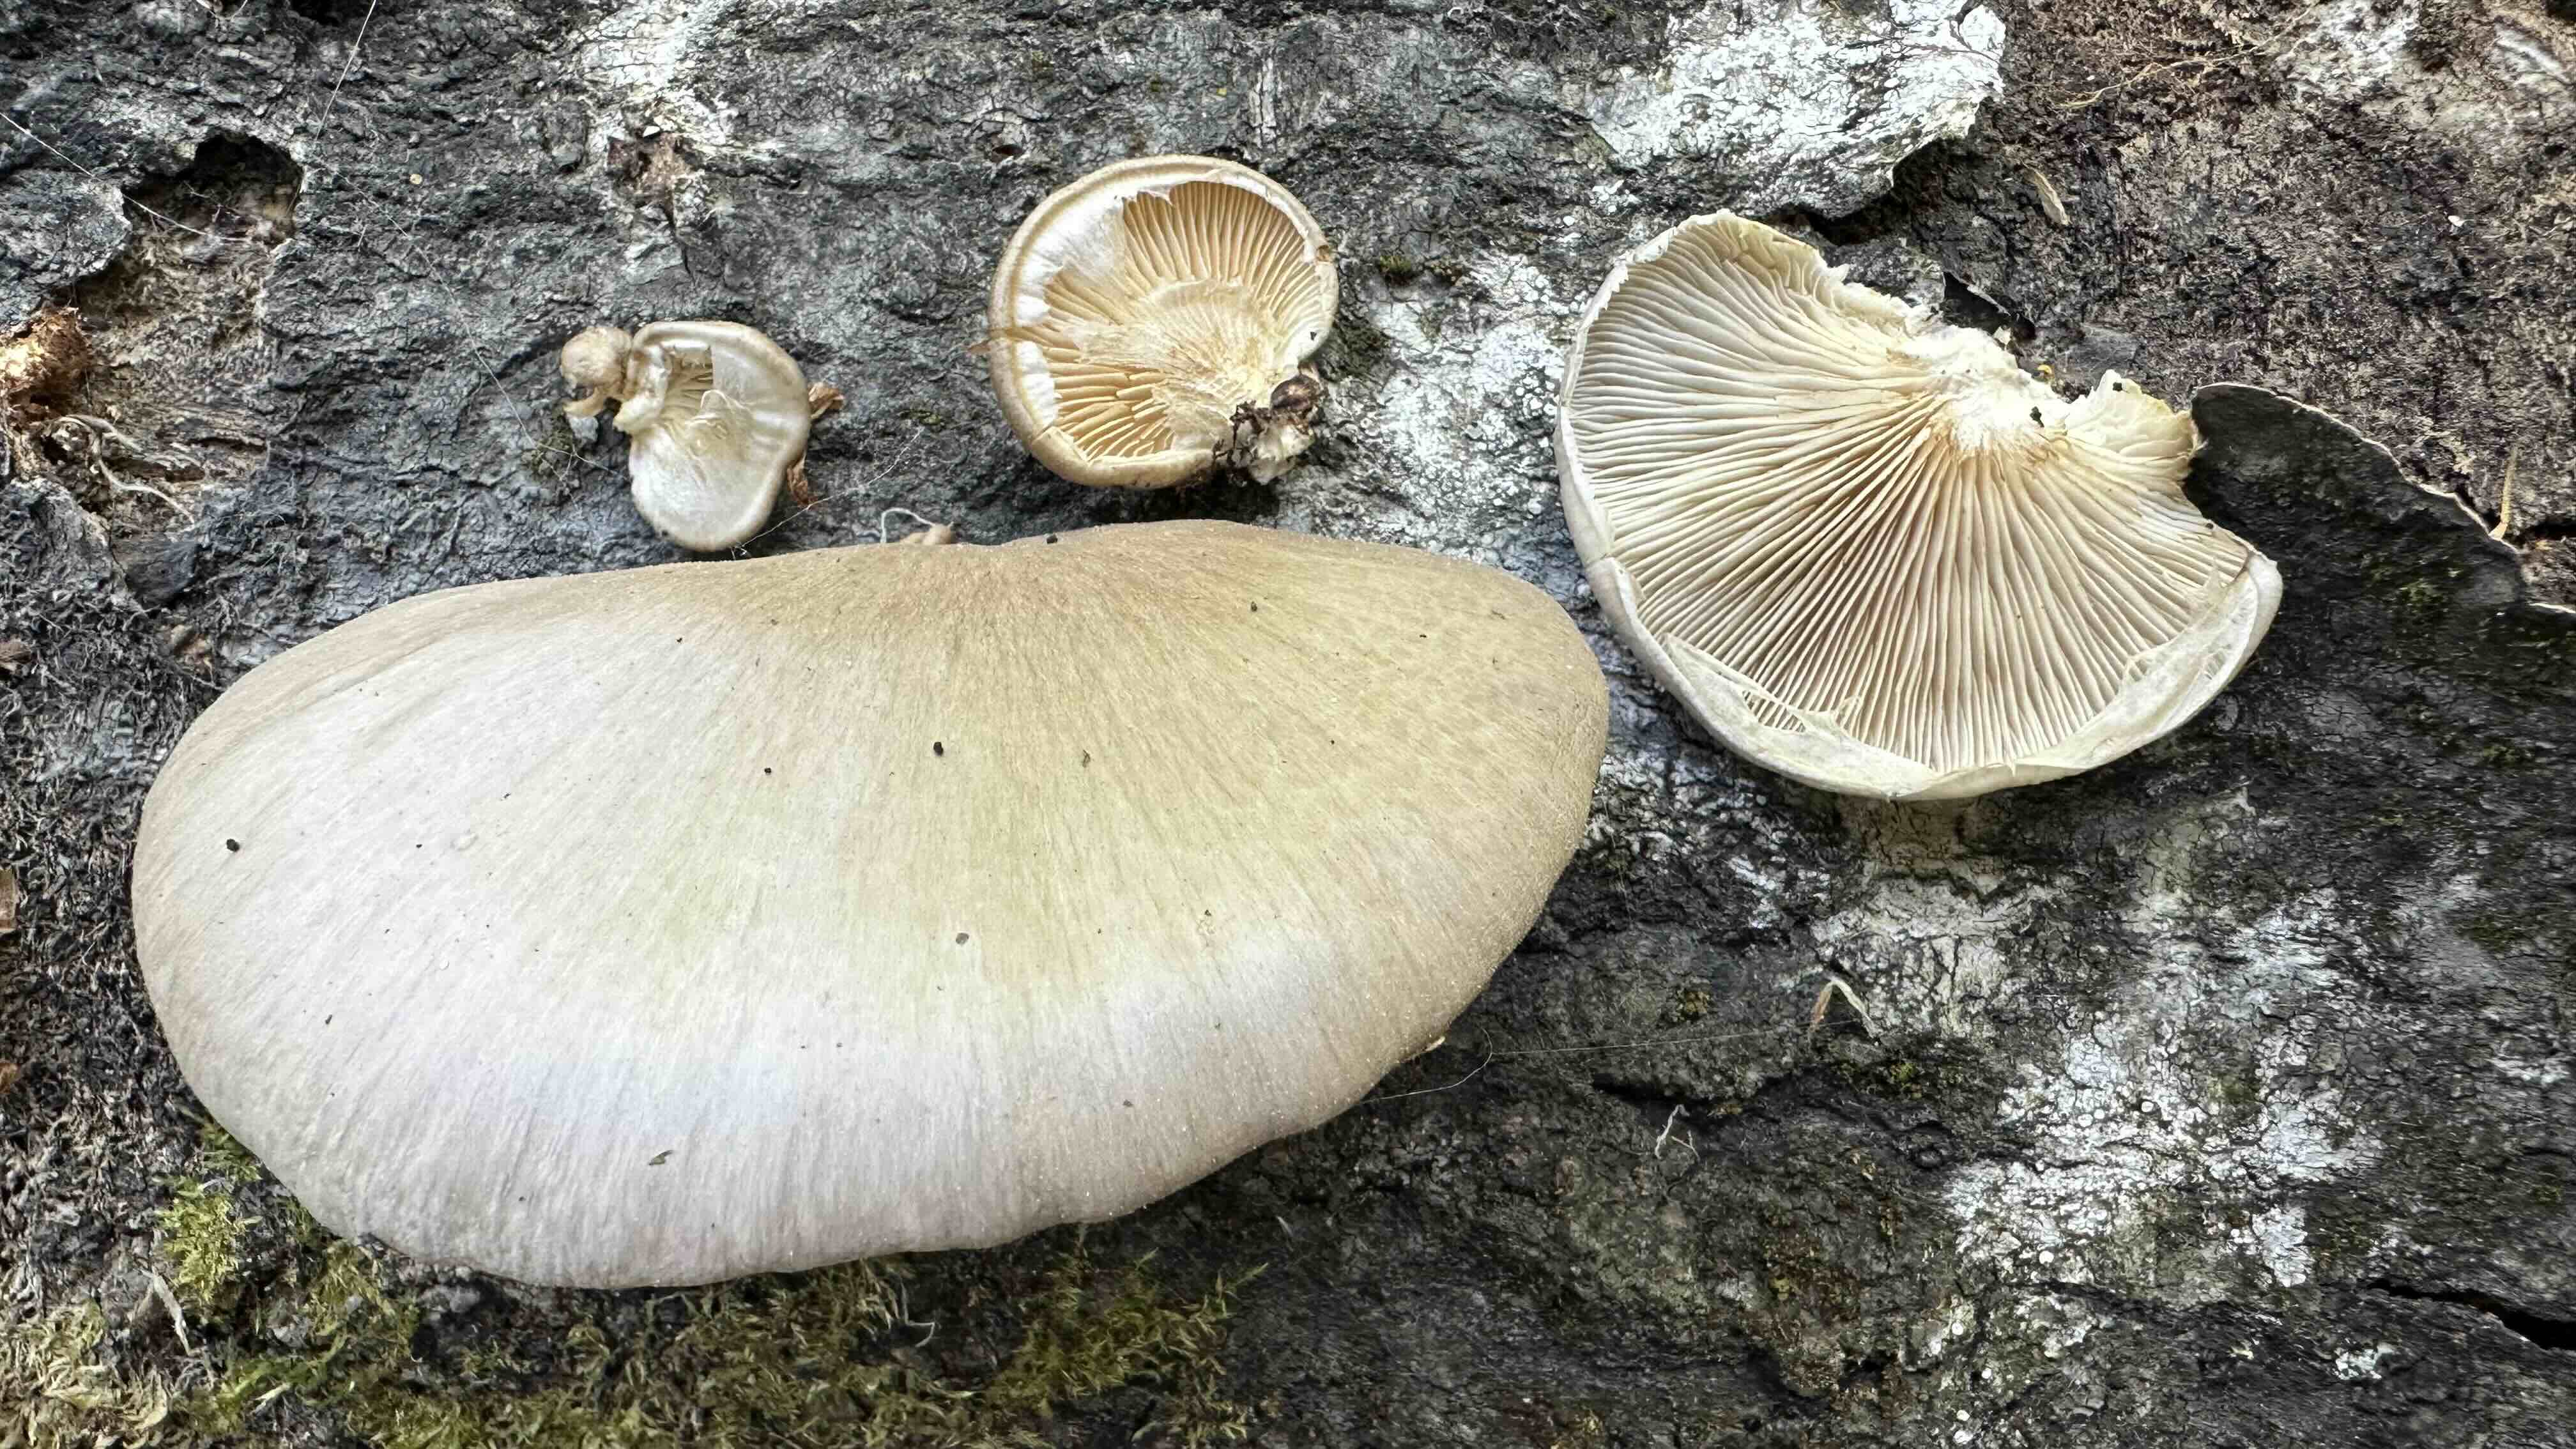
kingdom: Fungi
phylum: Basidiomycota
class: Agaricomycetes
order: Agaricales
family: Pleurotaceae
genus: Pleurotus
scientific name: Pleurotus calyptratus
